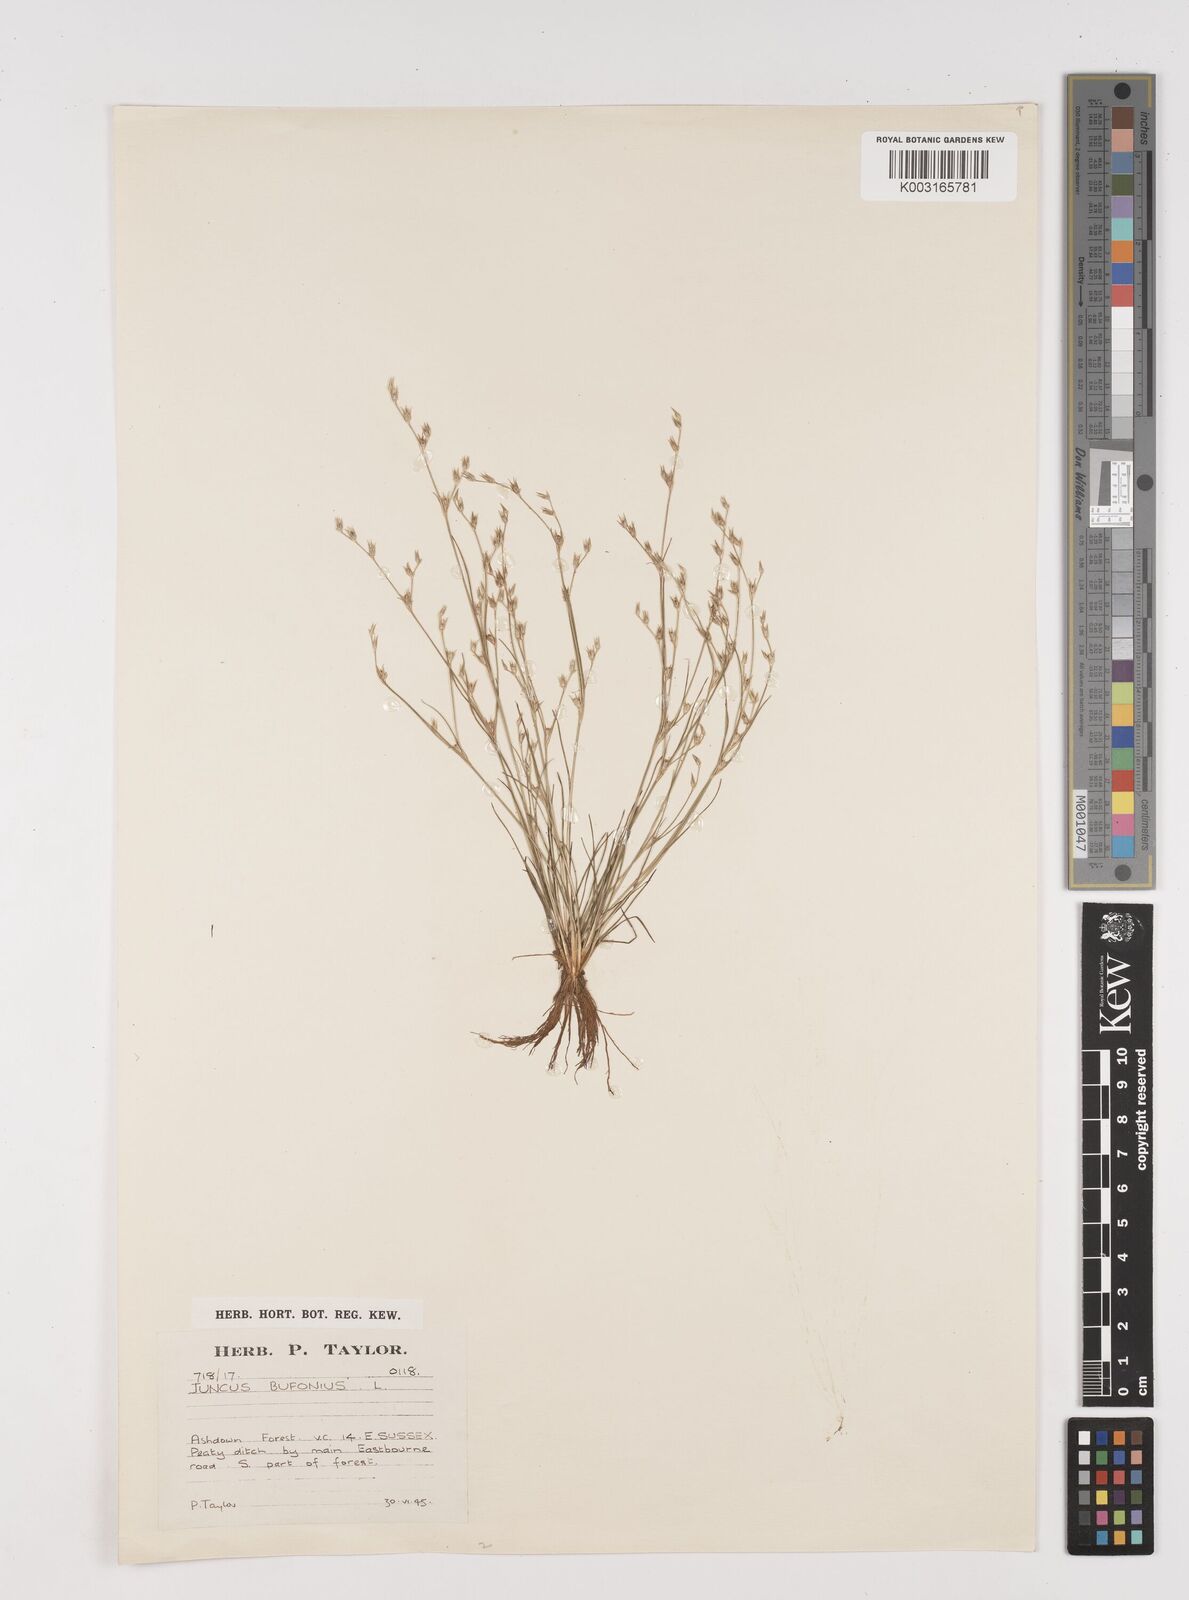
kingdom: Plantae
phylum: Tracheophyta
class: Liliopsida
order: Poales
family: Juncaceae
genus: Juncus
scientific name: Juncus bufonius
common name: Toad rush
